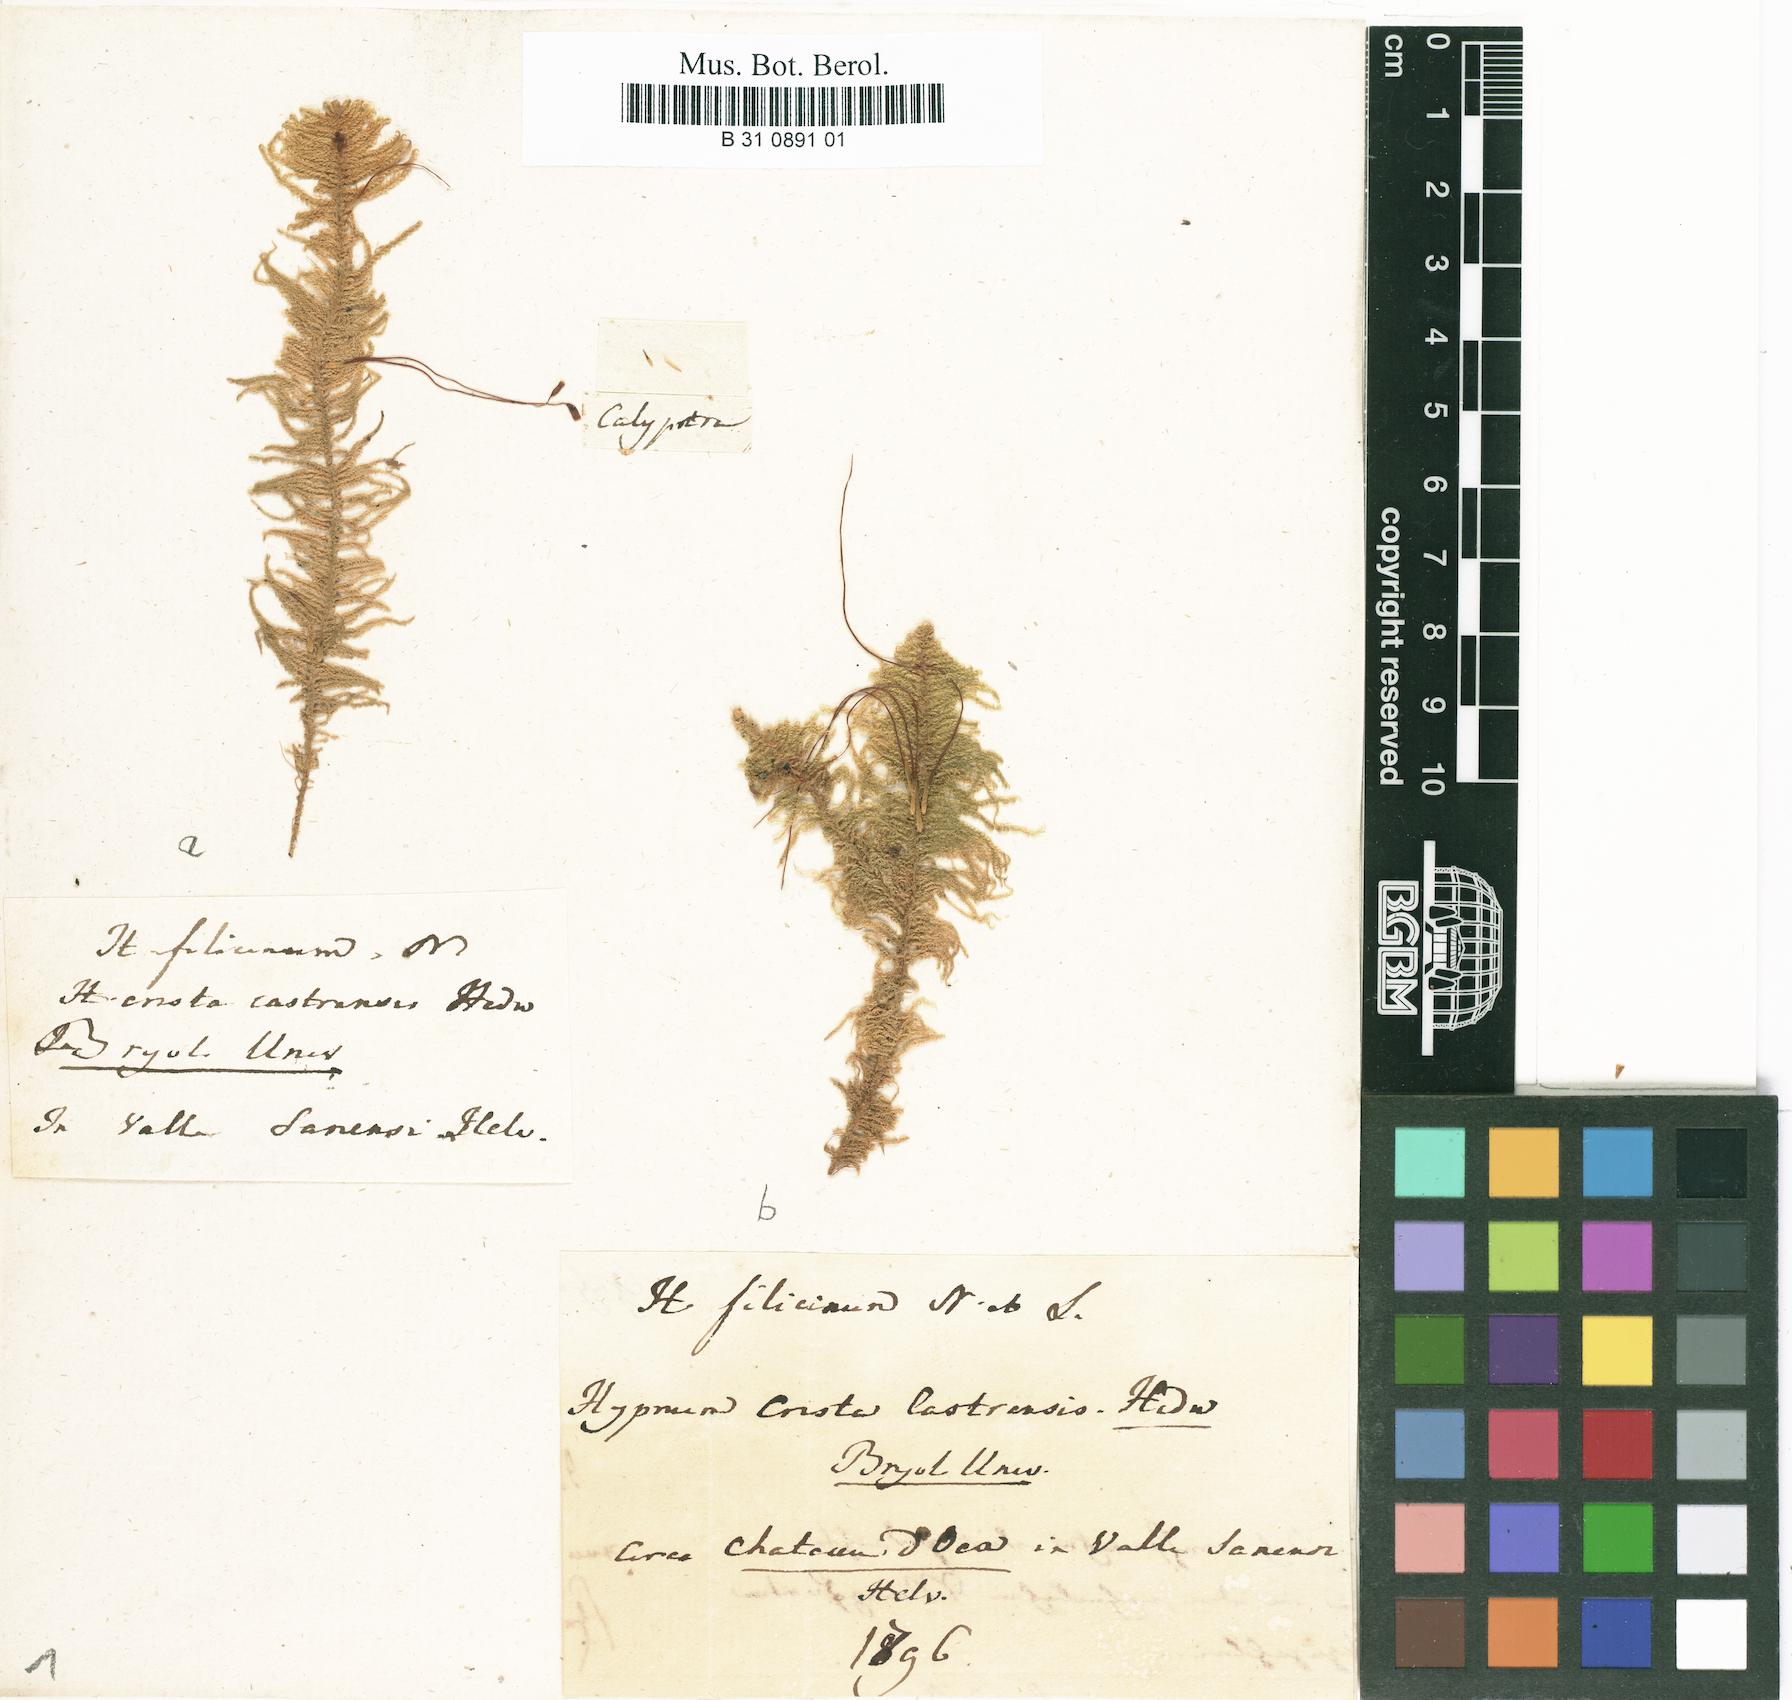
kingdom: Plantae
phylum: Bryophyta
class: Bryopsida
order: Hypnales
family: Pylaisiaceae
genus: Ptilium
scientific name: Ptilium crista-castrensis
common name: Knight's plume moss
